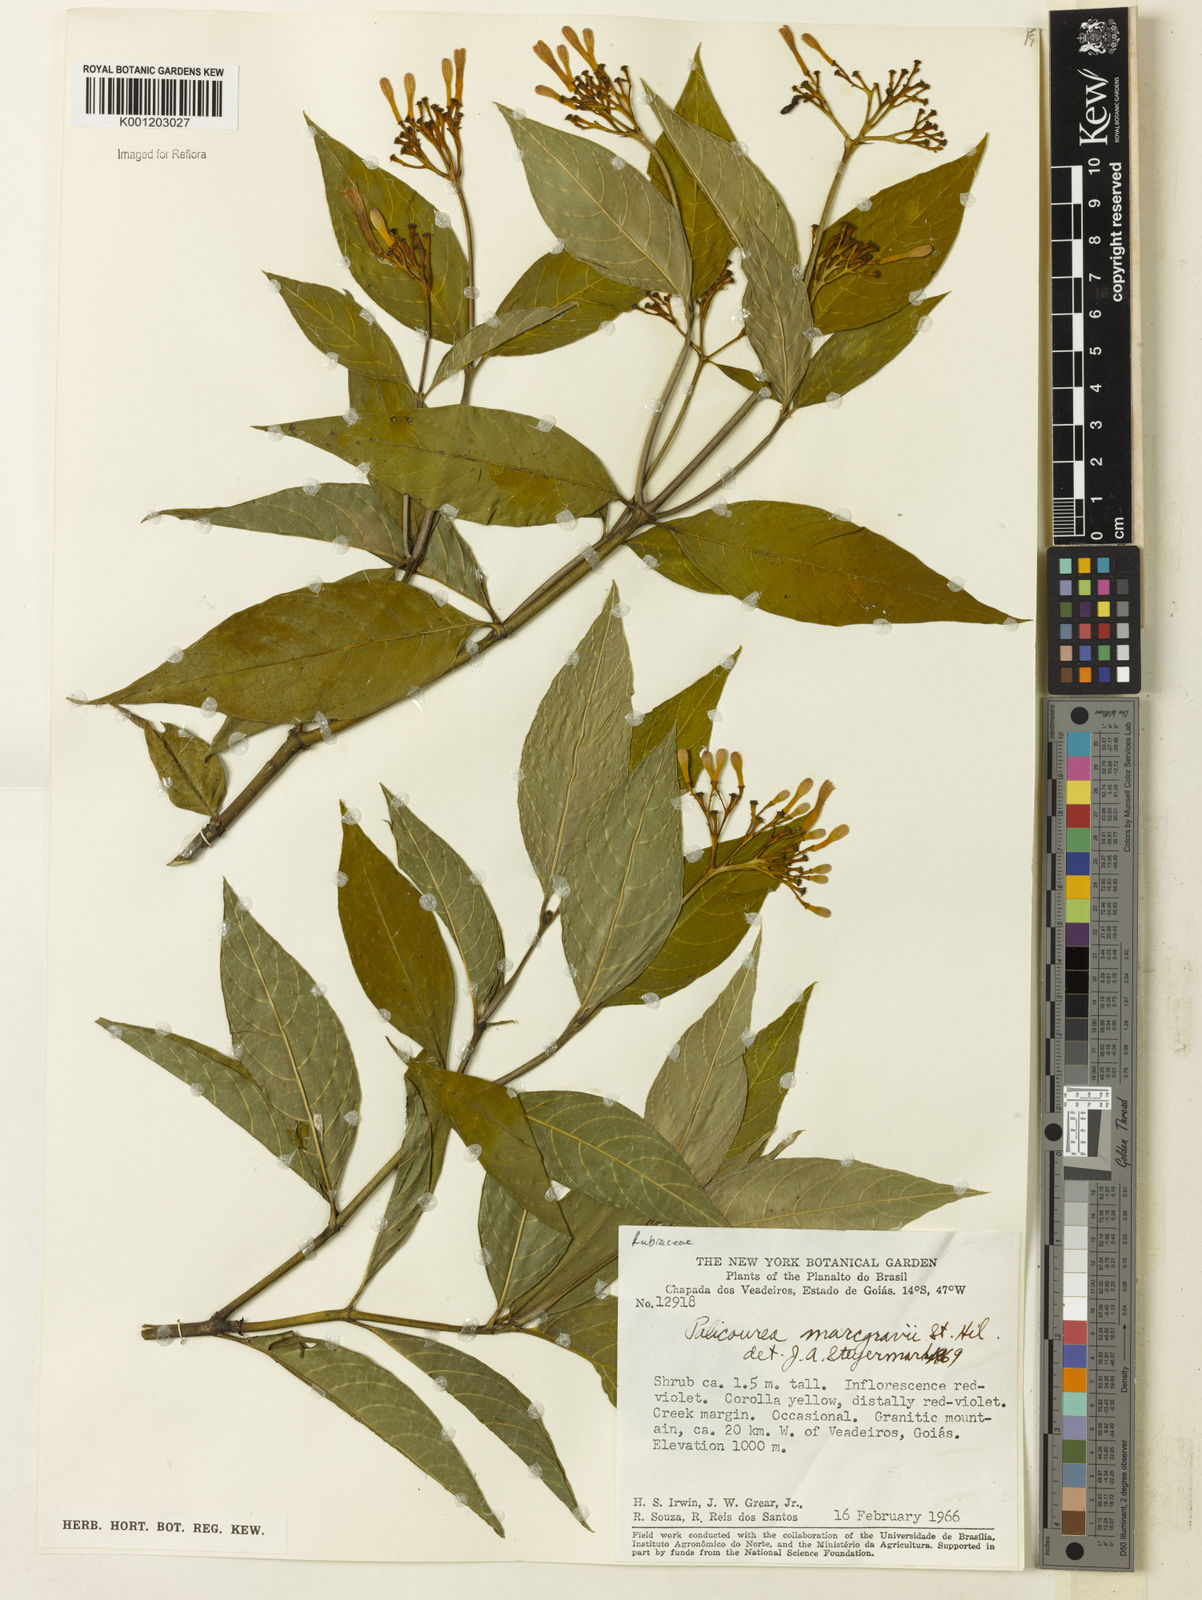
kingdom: Plantae
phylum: Tracheophyta
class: Magnoliopsida
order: Gentianales
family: Rubiaceae
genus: Palicourea
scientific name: Palicourea marcgravii
